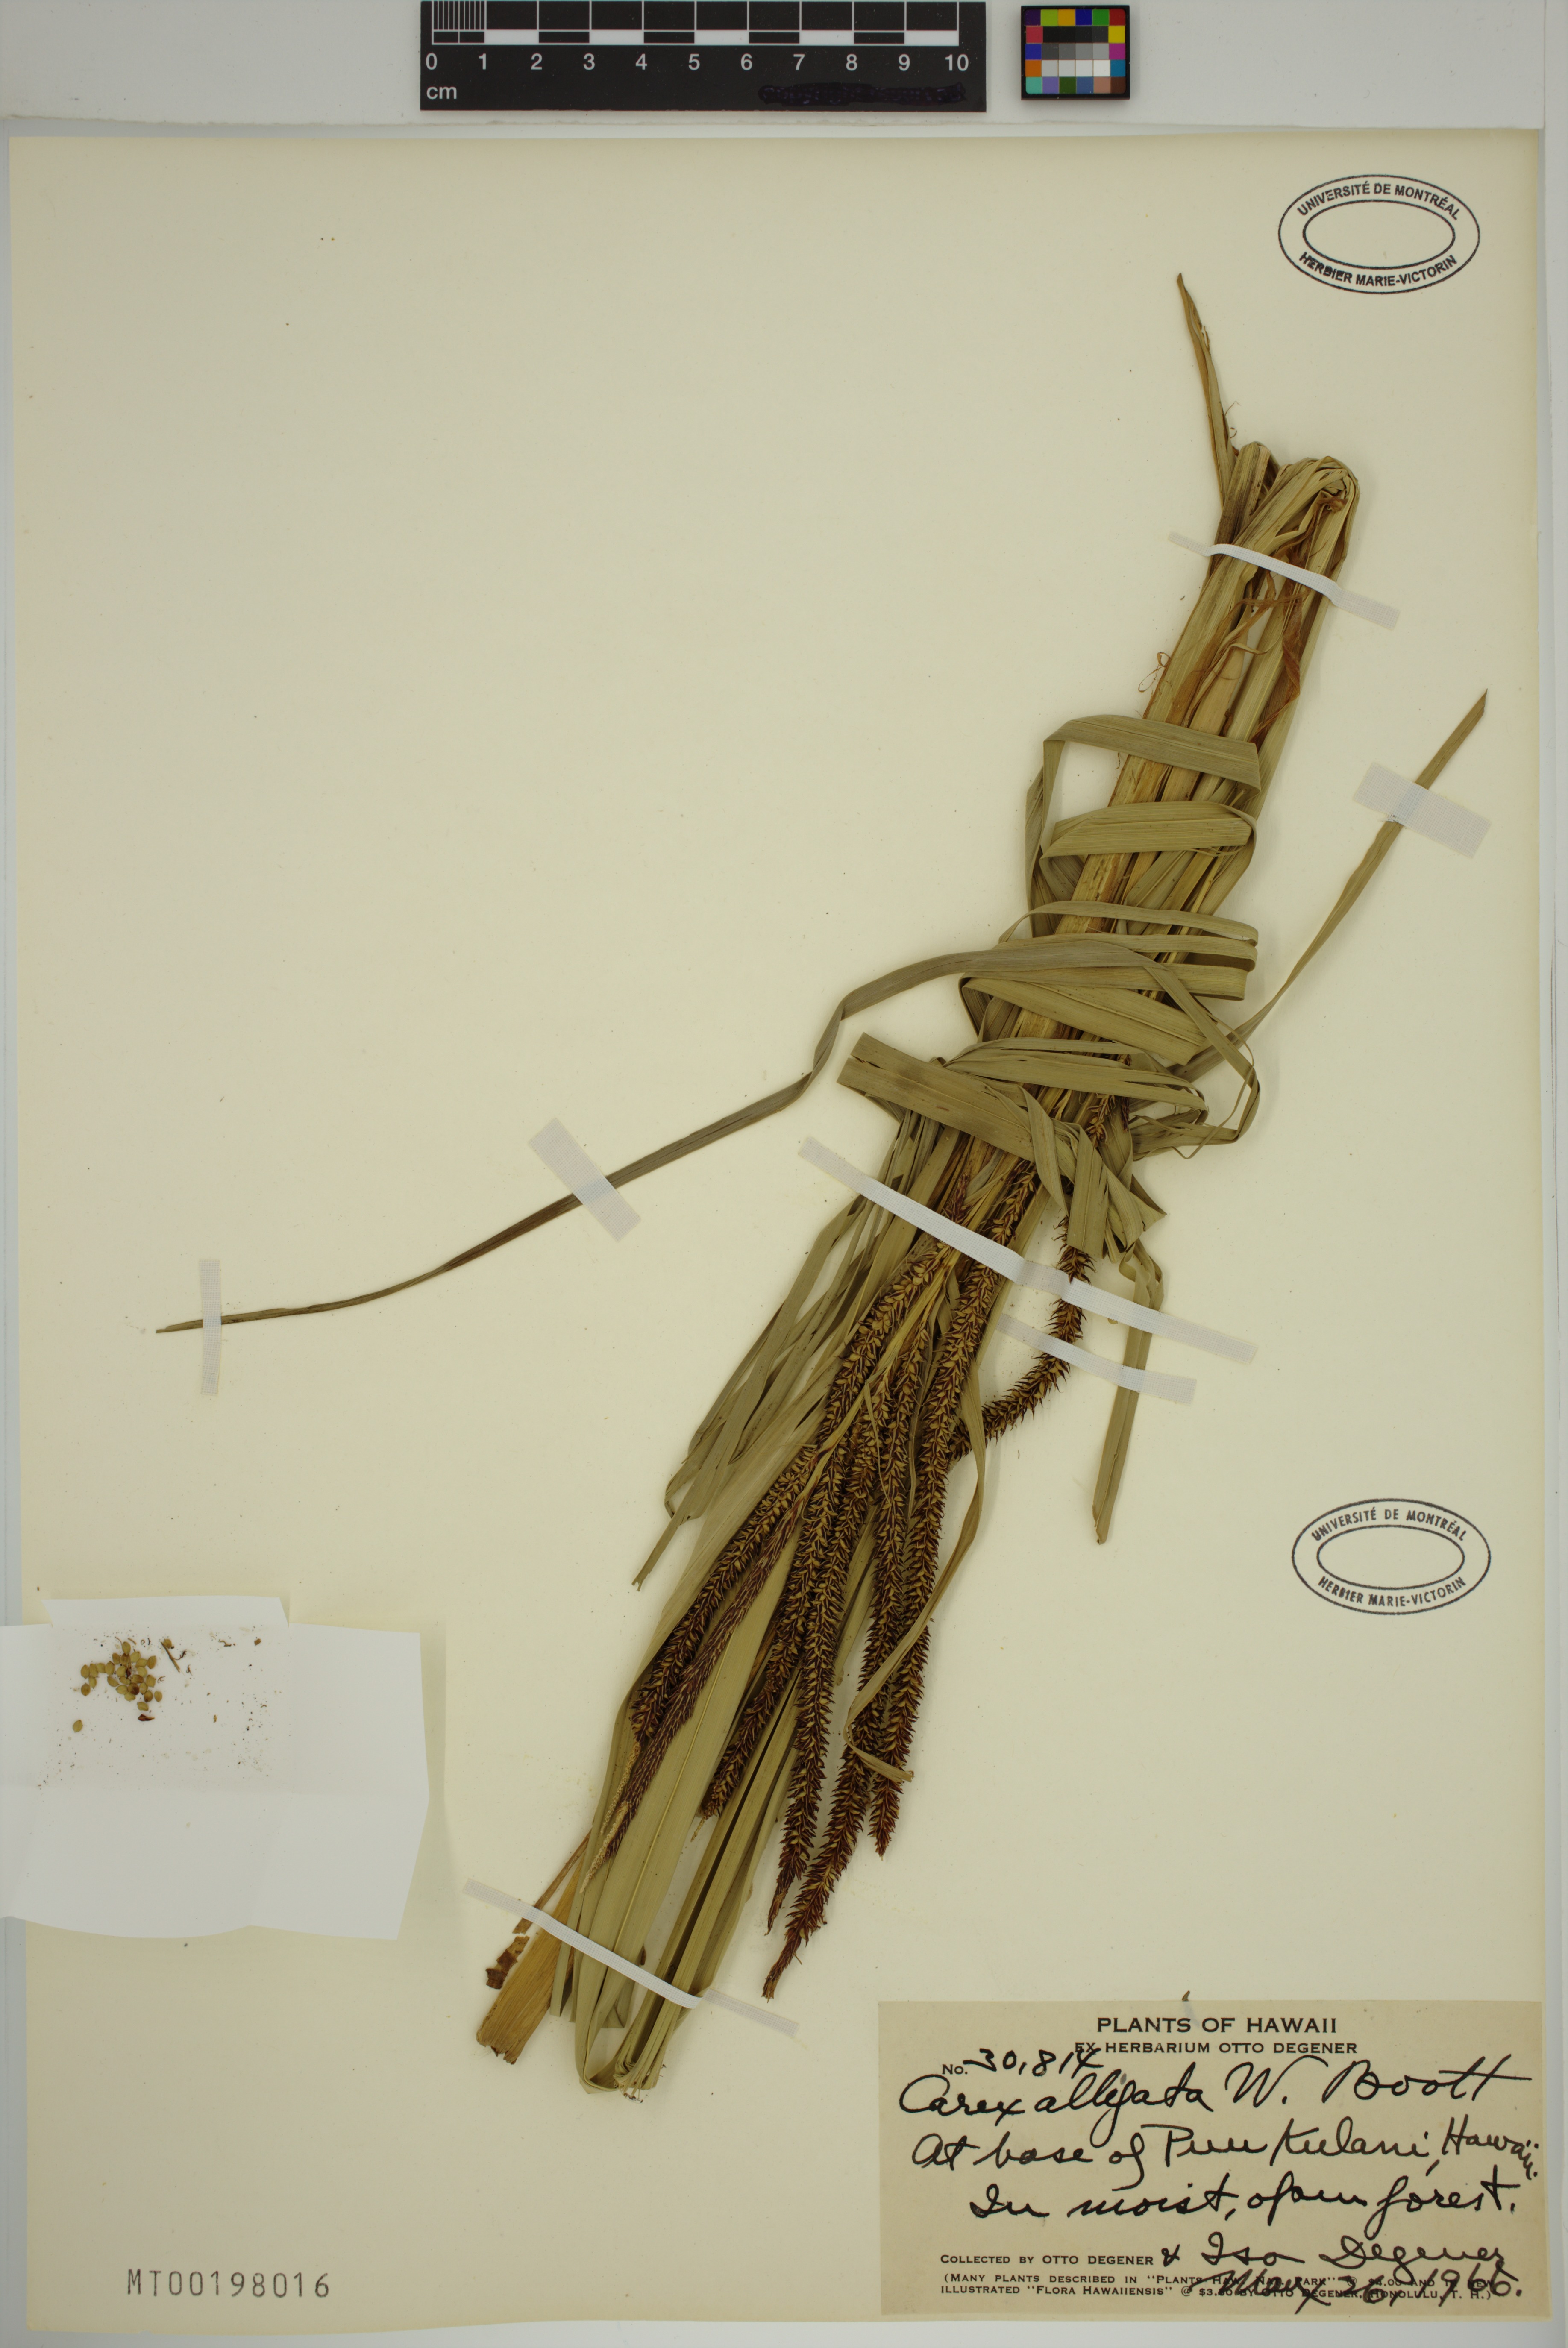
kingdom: Plantae
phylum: Tracheophyta
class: Liliopsida
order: Poales
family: Cyperaceae
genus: Carex
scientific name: Carex alligata
